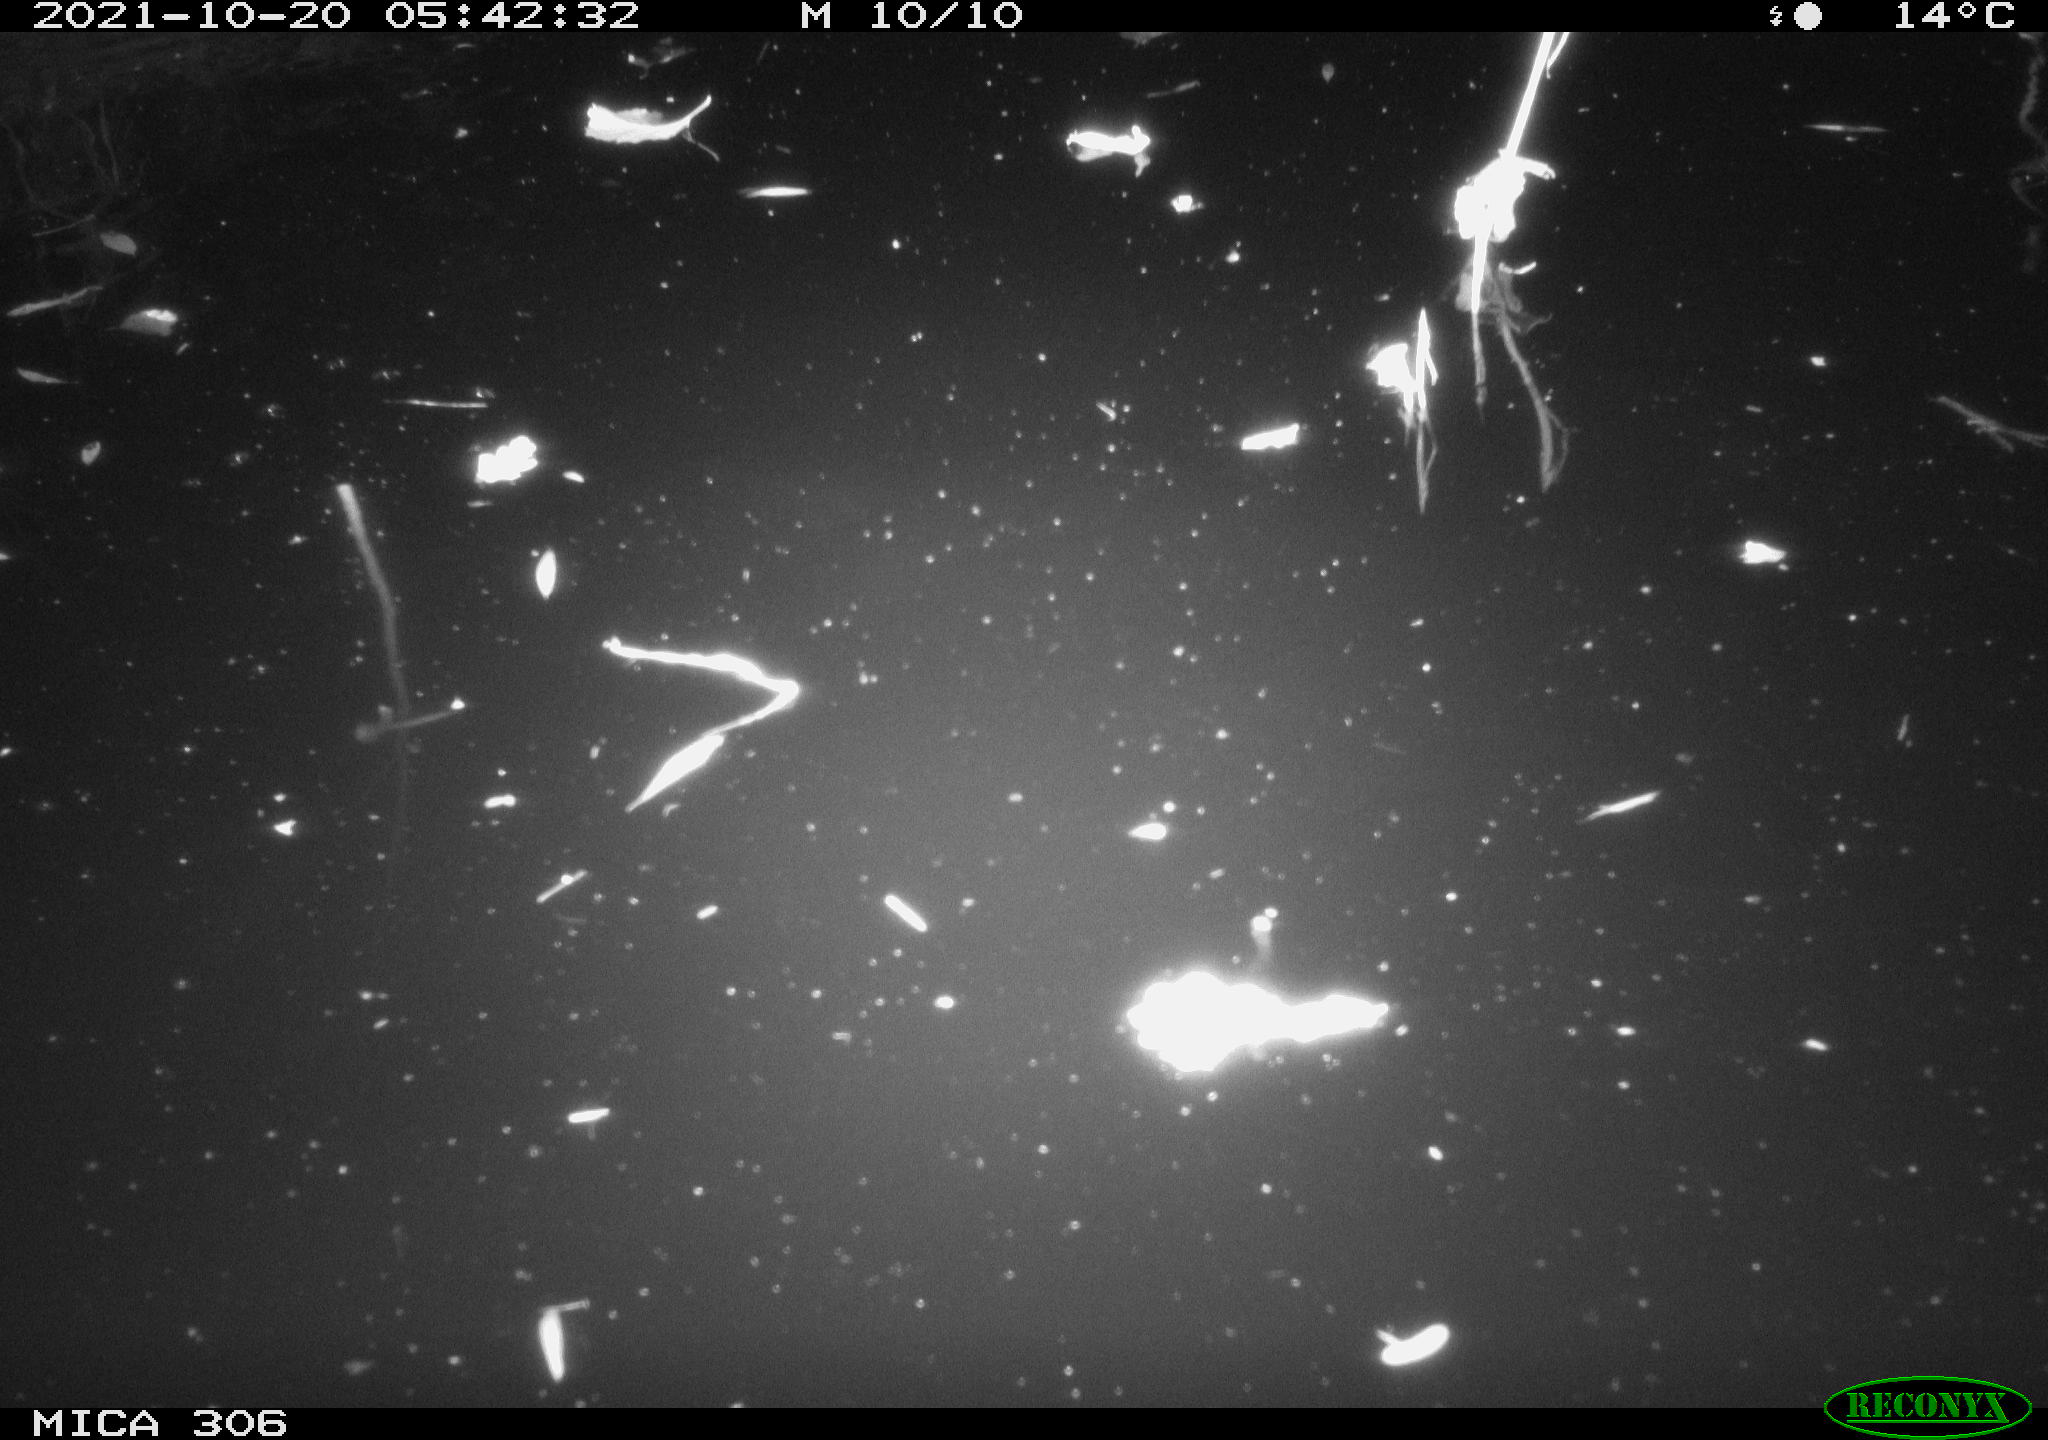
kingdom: Animalia
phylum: Chordata
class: Mammalia
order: Rodentia
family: Cricetidae
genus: Ondatra
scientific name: Ondatra zibethicus
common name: Muskrat
